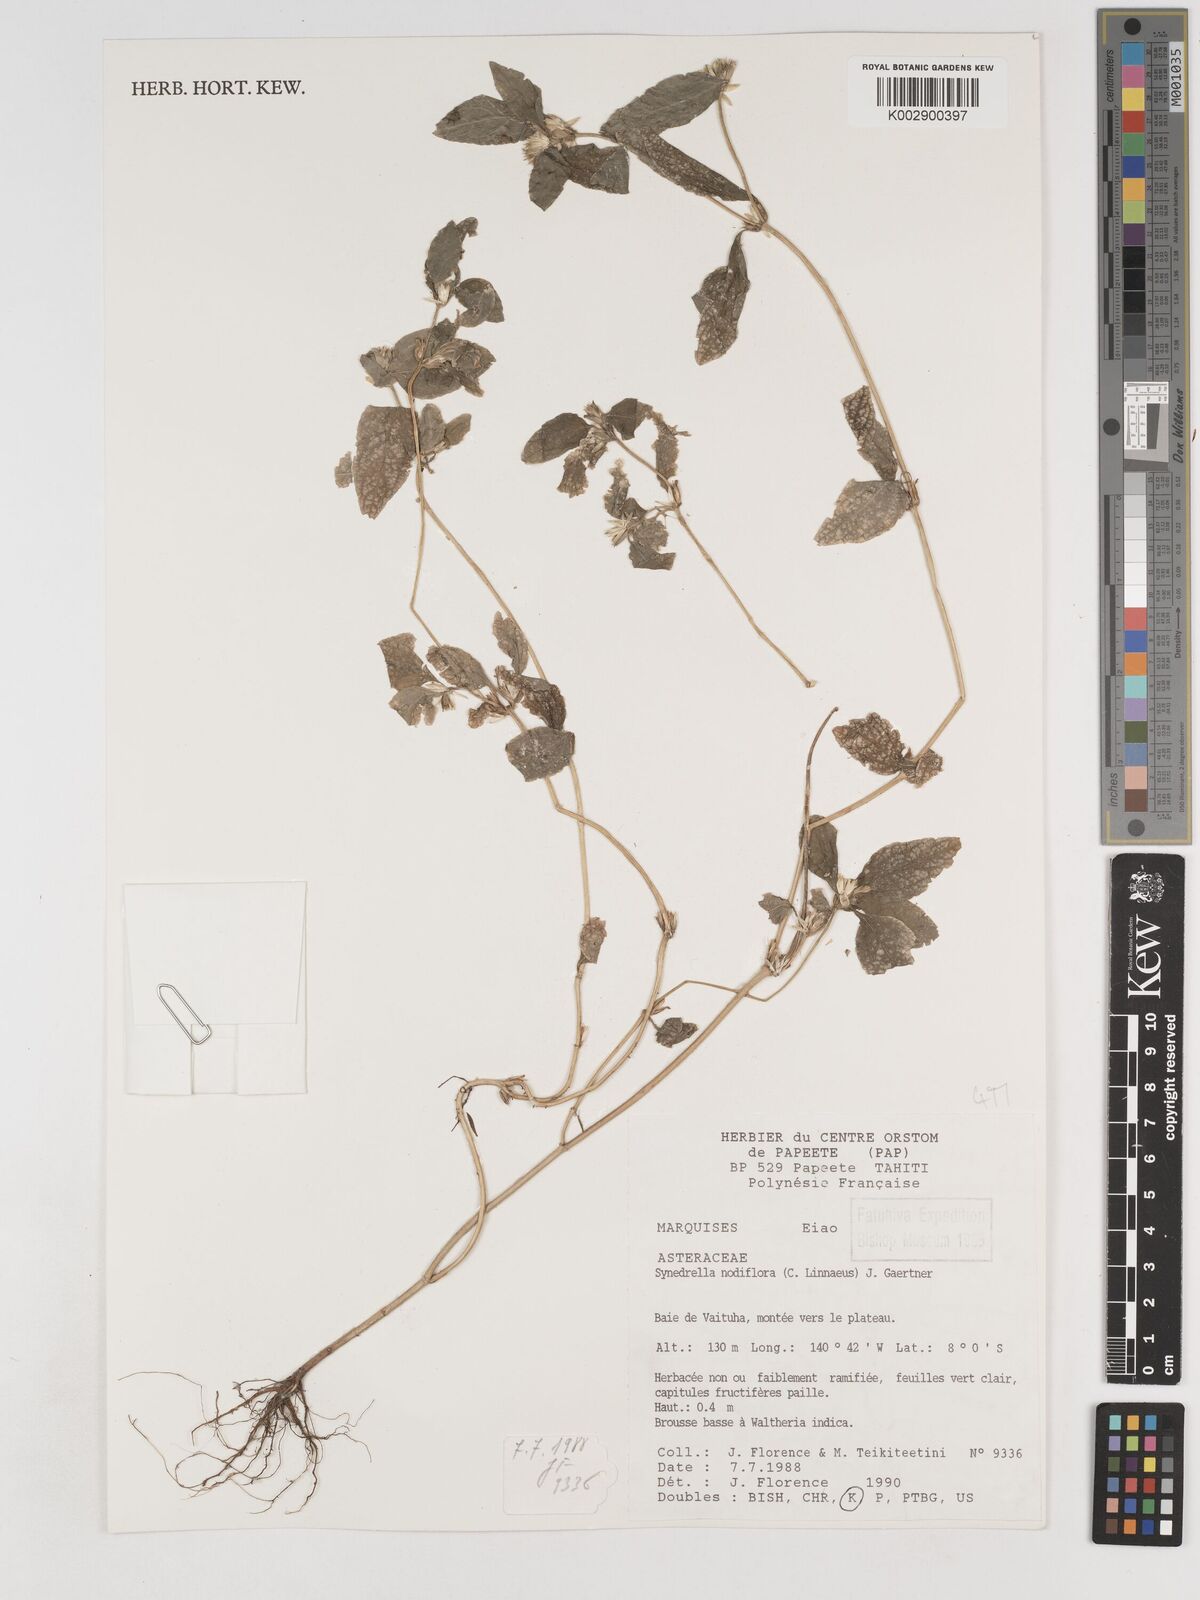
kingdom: Plantae
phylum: Tracheophyta
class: Magnoliopsida
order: Asterales
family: Asteraceae
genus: Synedrella
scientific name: Synedrella nodiflora
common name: Nodeweed
